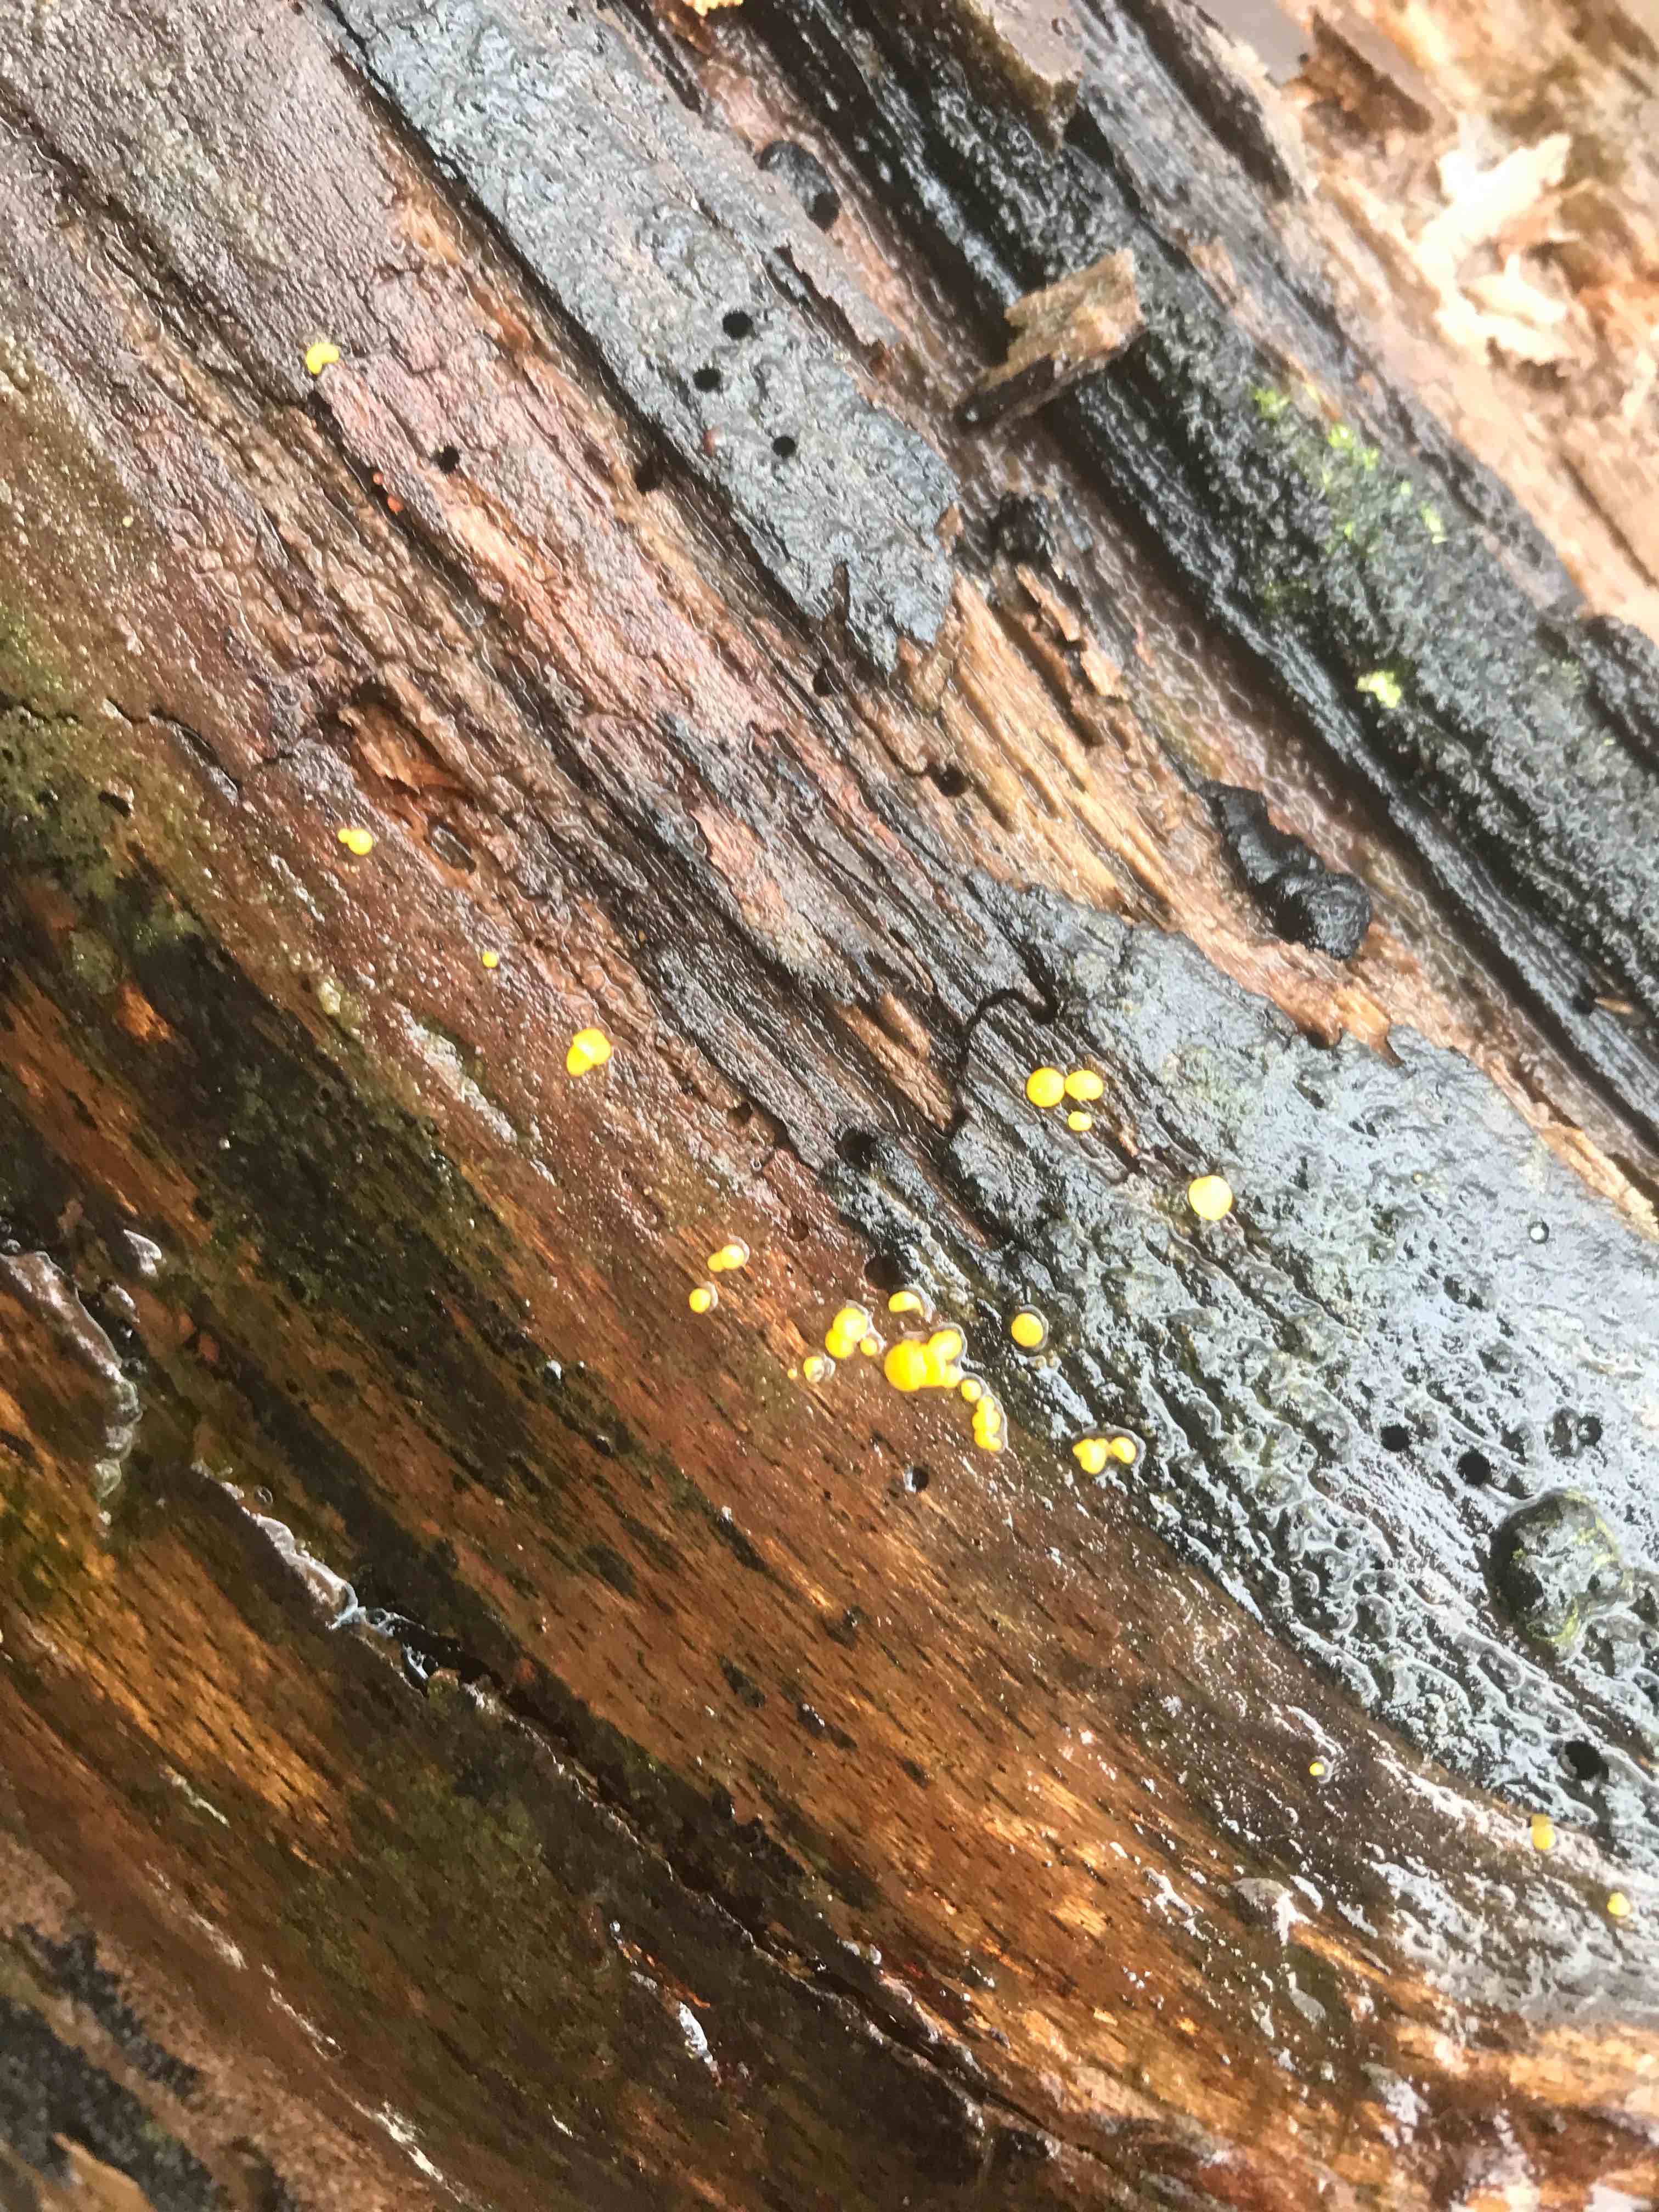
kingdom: Fungi
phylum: Ascomycota
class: Leotiomycetes
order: Helotiales
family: Pezizellaceae
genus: Calycina
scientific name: Calycina citrina
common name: almindelig gulskive
